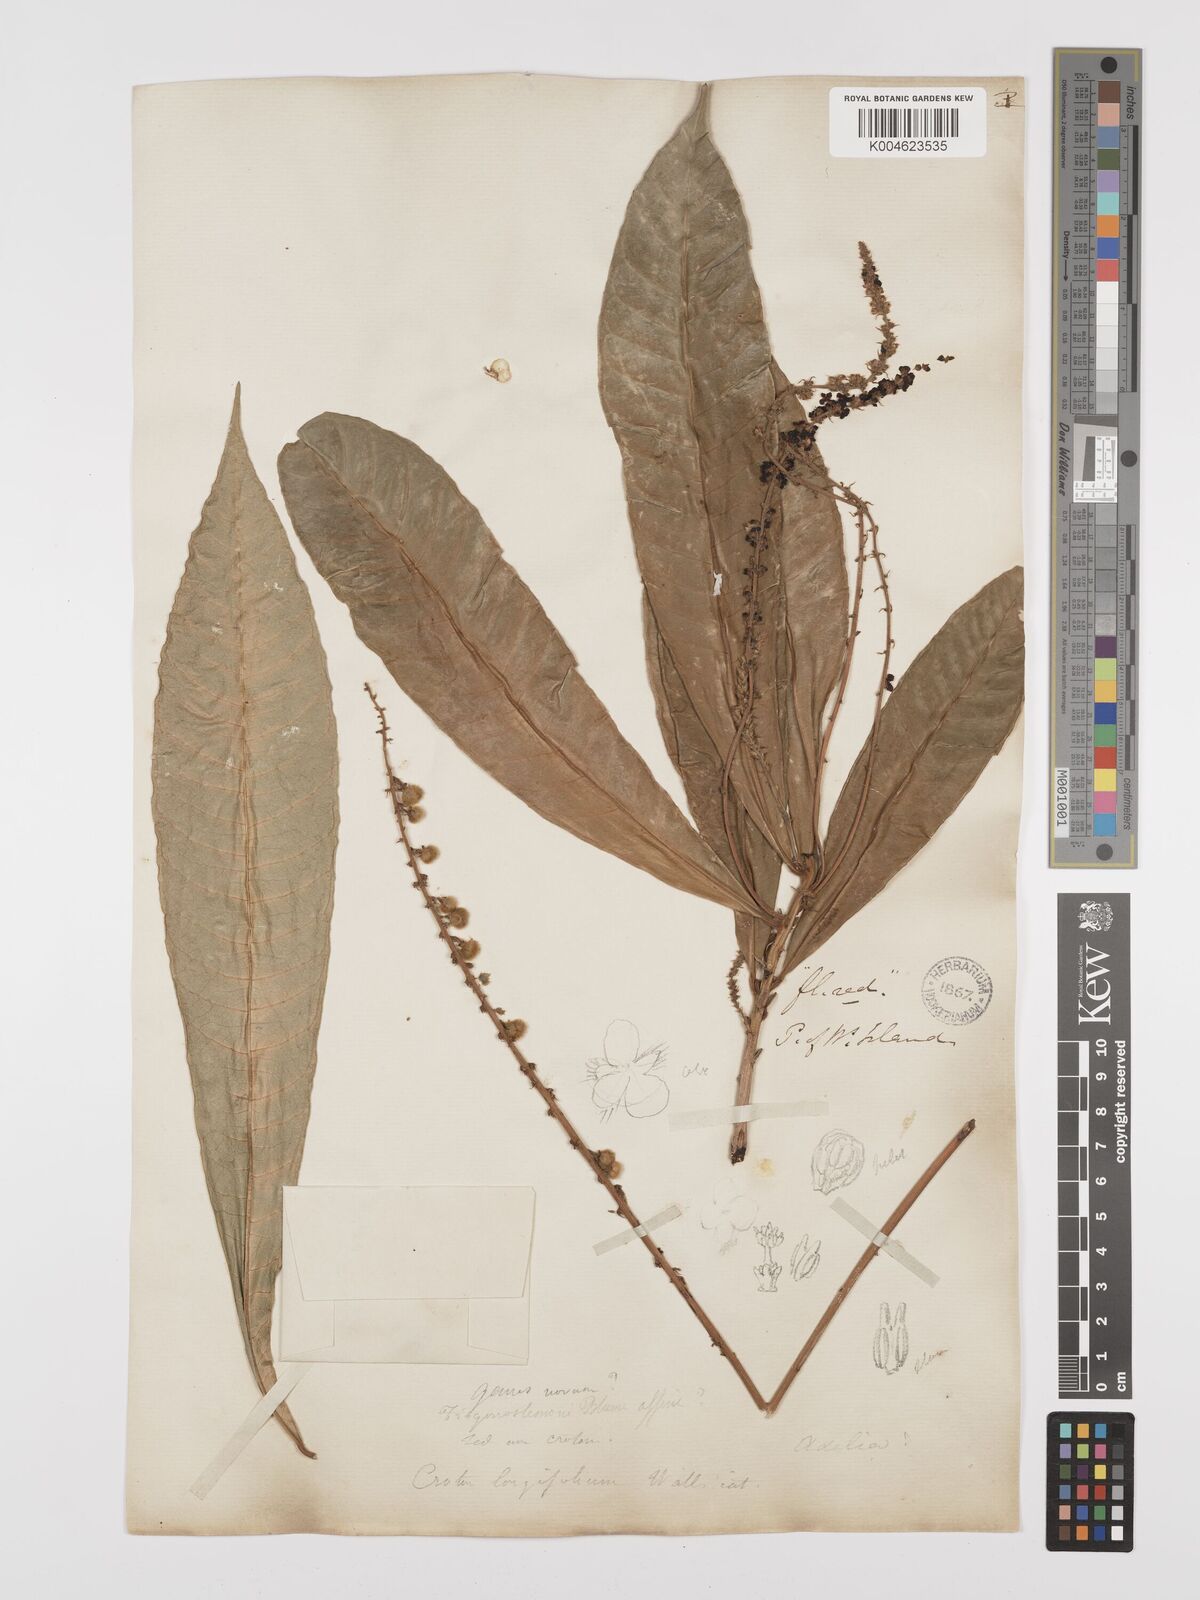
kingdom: Plantae
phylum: Tracheophyta
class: Magnoliopsida
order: Malpighiales
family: Euphorbiaceae
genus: Trigonostemon
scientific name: Trigonostemon longifolius
